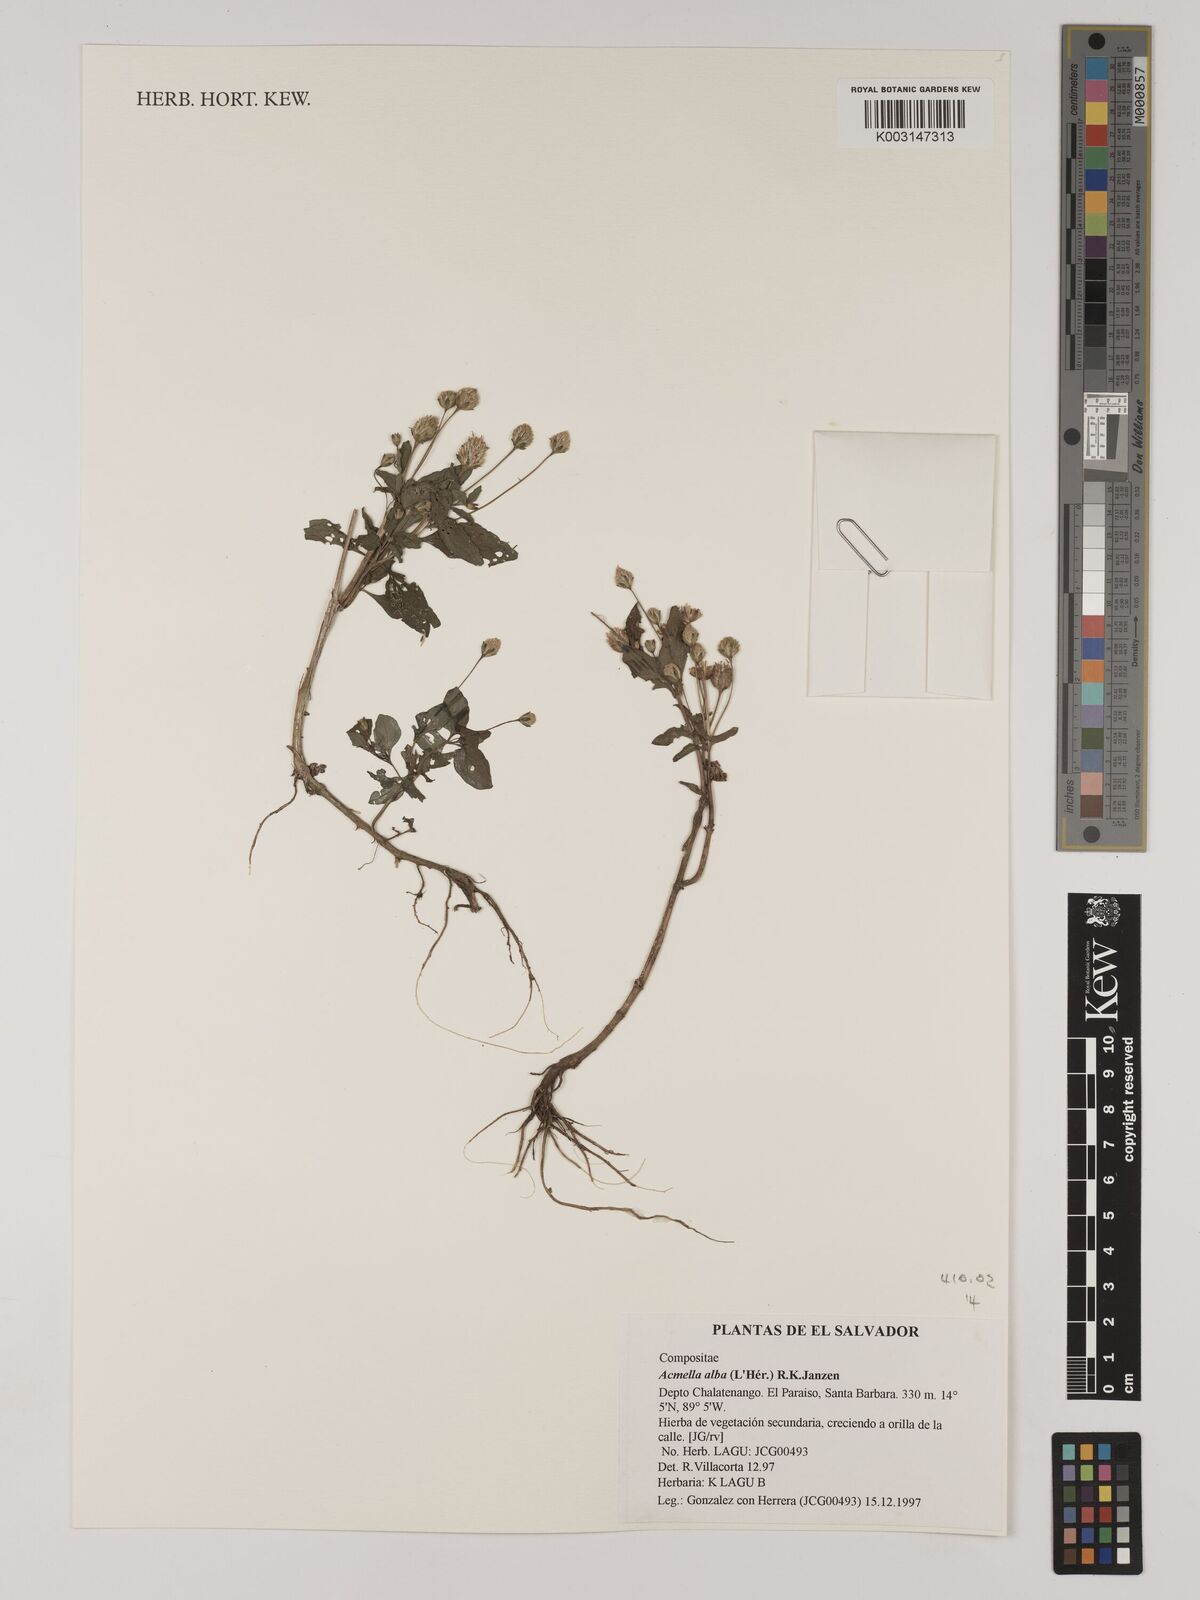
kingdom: Plantae
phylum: Tracheophyta
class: Magnoliopsida
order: Asterales
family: Asteraceae
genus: Acmella
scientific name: Acmella alba
